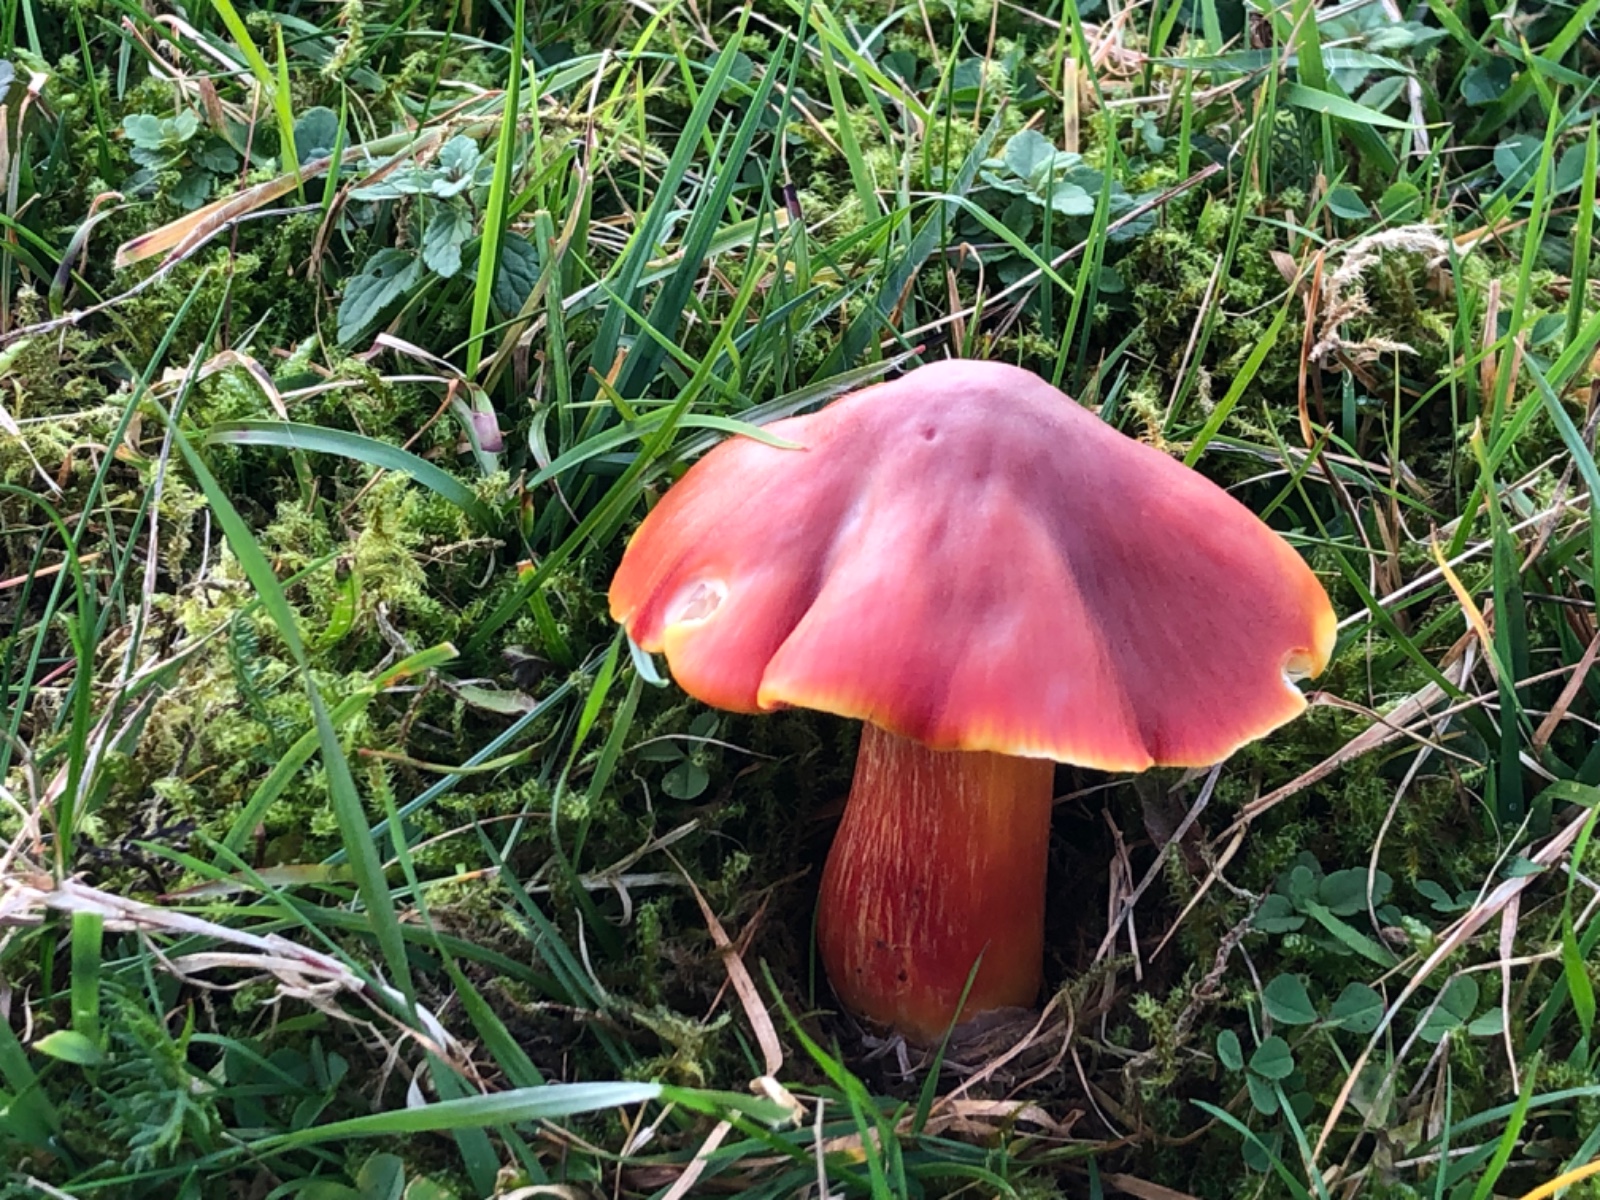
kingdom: Fungi
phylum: Basidiomycota
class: Agaricomycetes
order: Agaricales
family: Hygrophoraceae
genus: Hygrocybe
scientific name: Hygrocybe punicea
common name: skarlagen-vokshat
